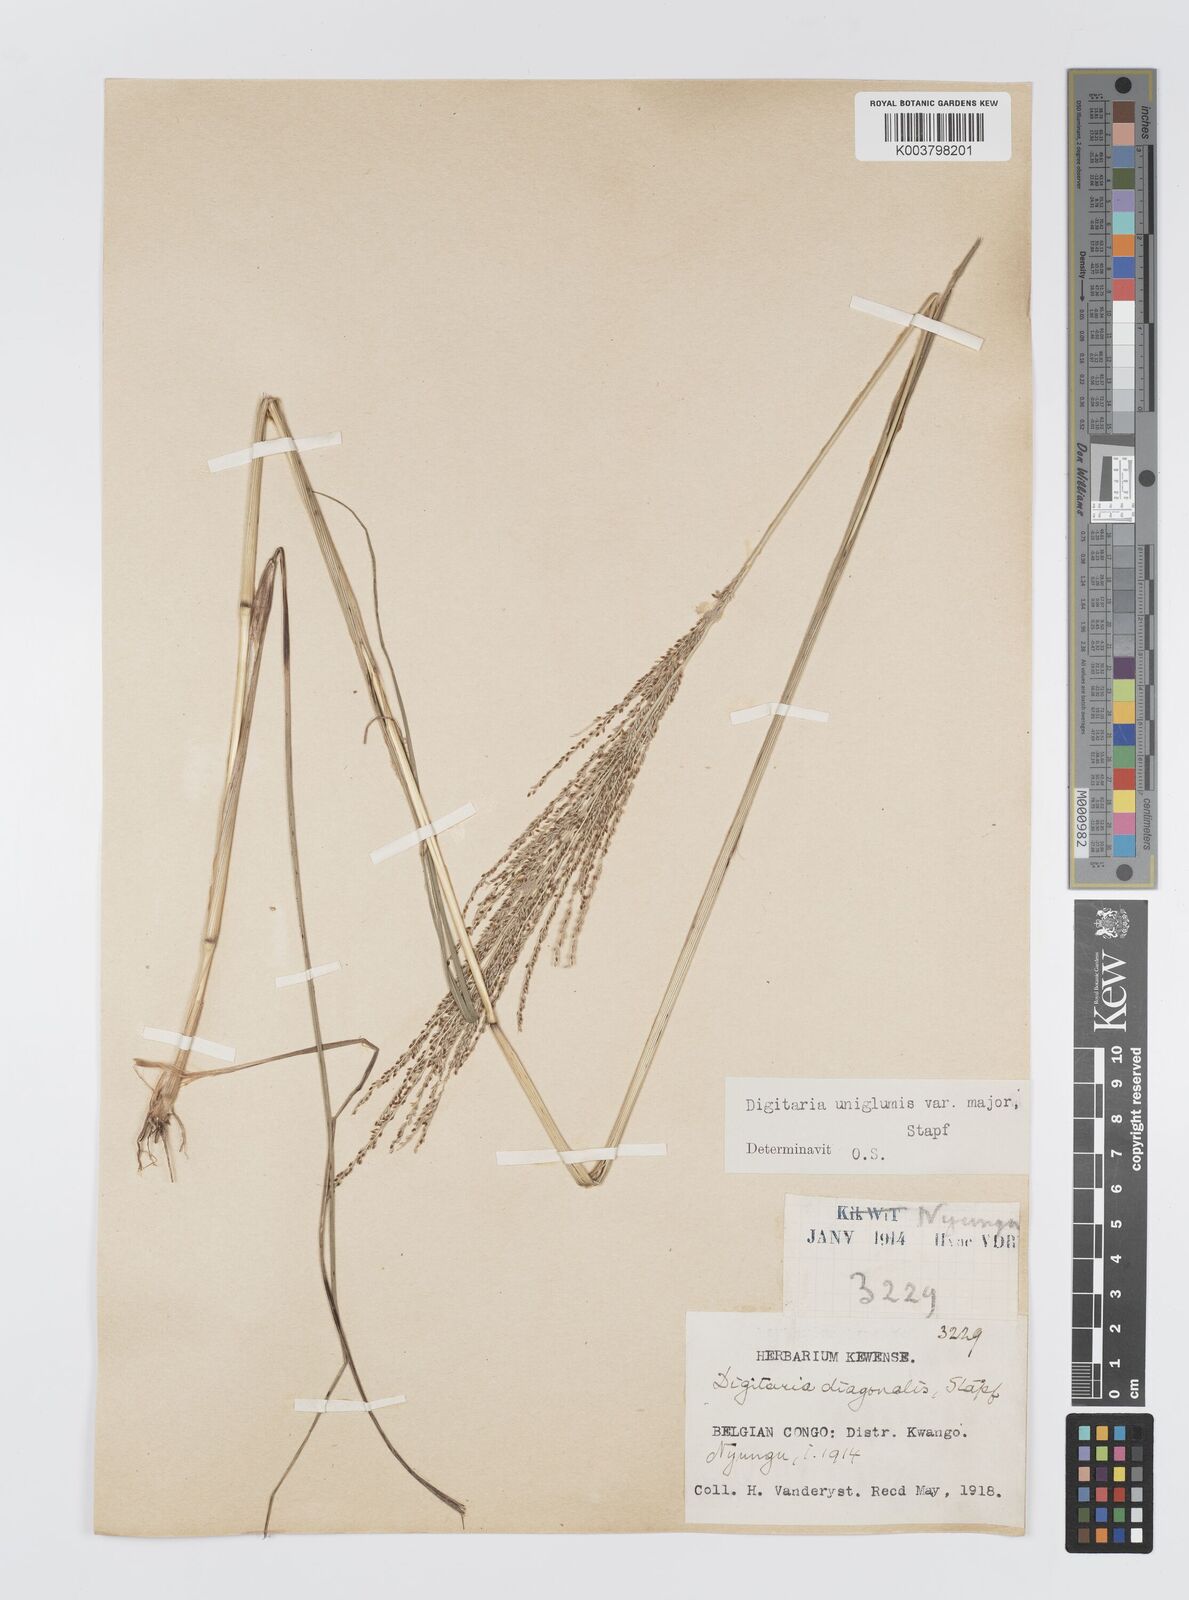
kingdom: Plantae
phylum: Tracheophyta
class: Liliopsida
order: Poales
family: Poaceae
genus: Digitaria
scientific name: Digitaria diagonalis
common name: Brown-seed finger grass
